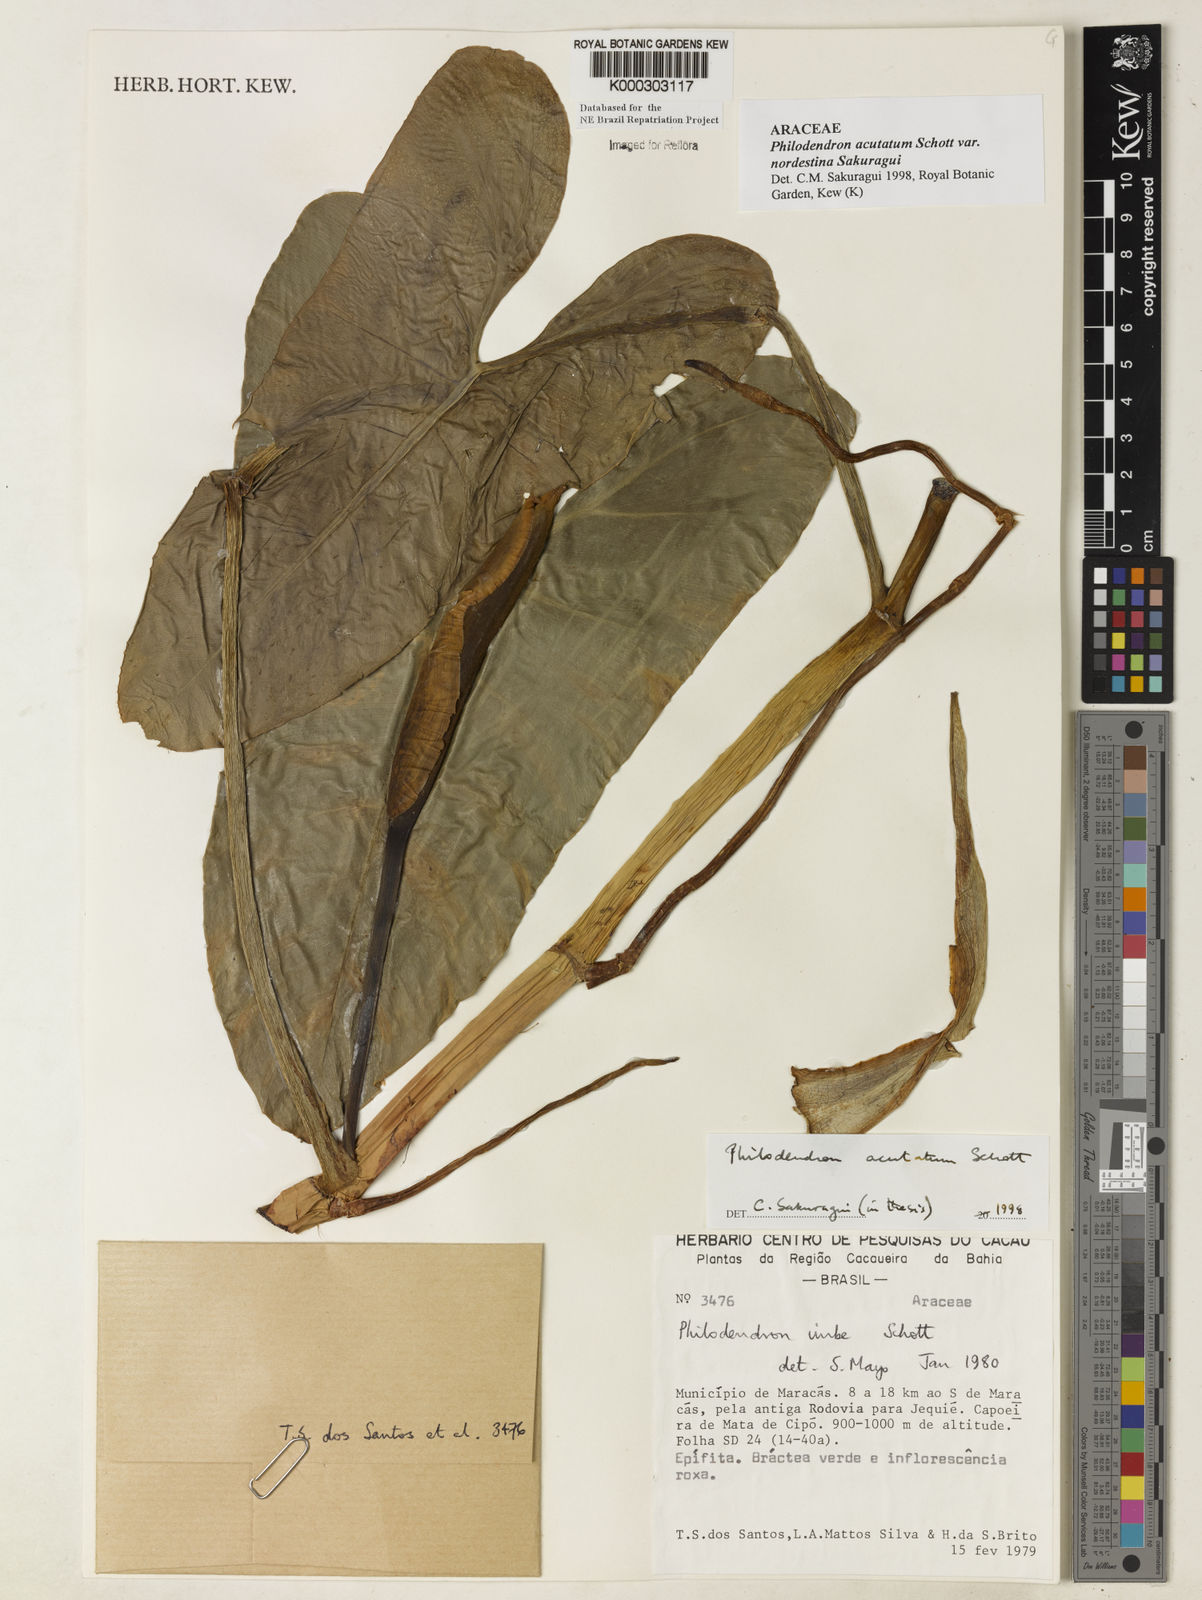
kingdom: Plantae
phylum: Tracheophyta
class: Liliopsida
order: Alismatales
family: Araceae
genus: Philodendron
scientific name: Philodendron quinquenervium
